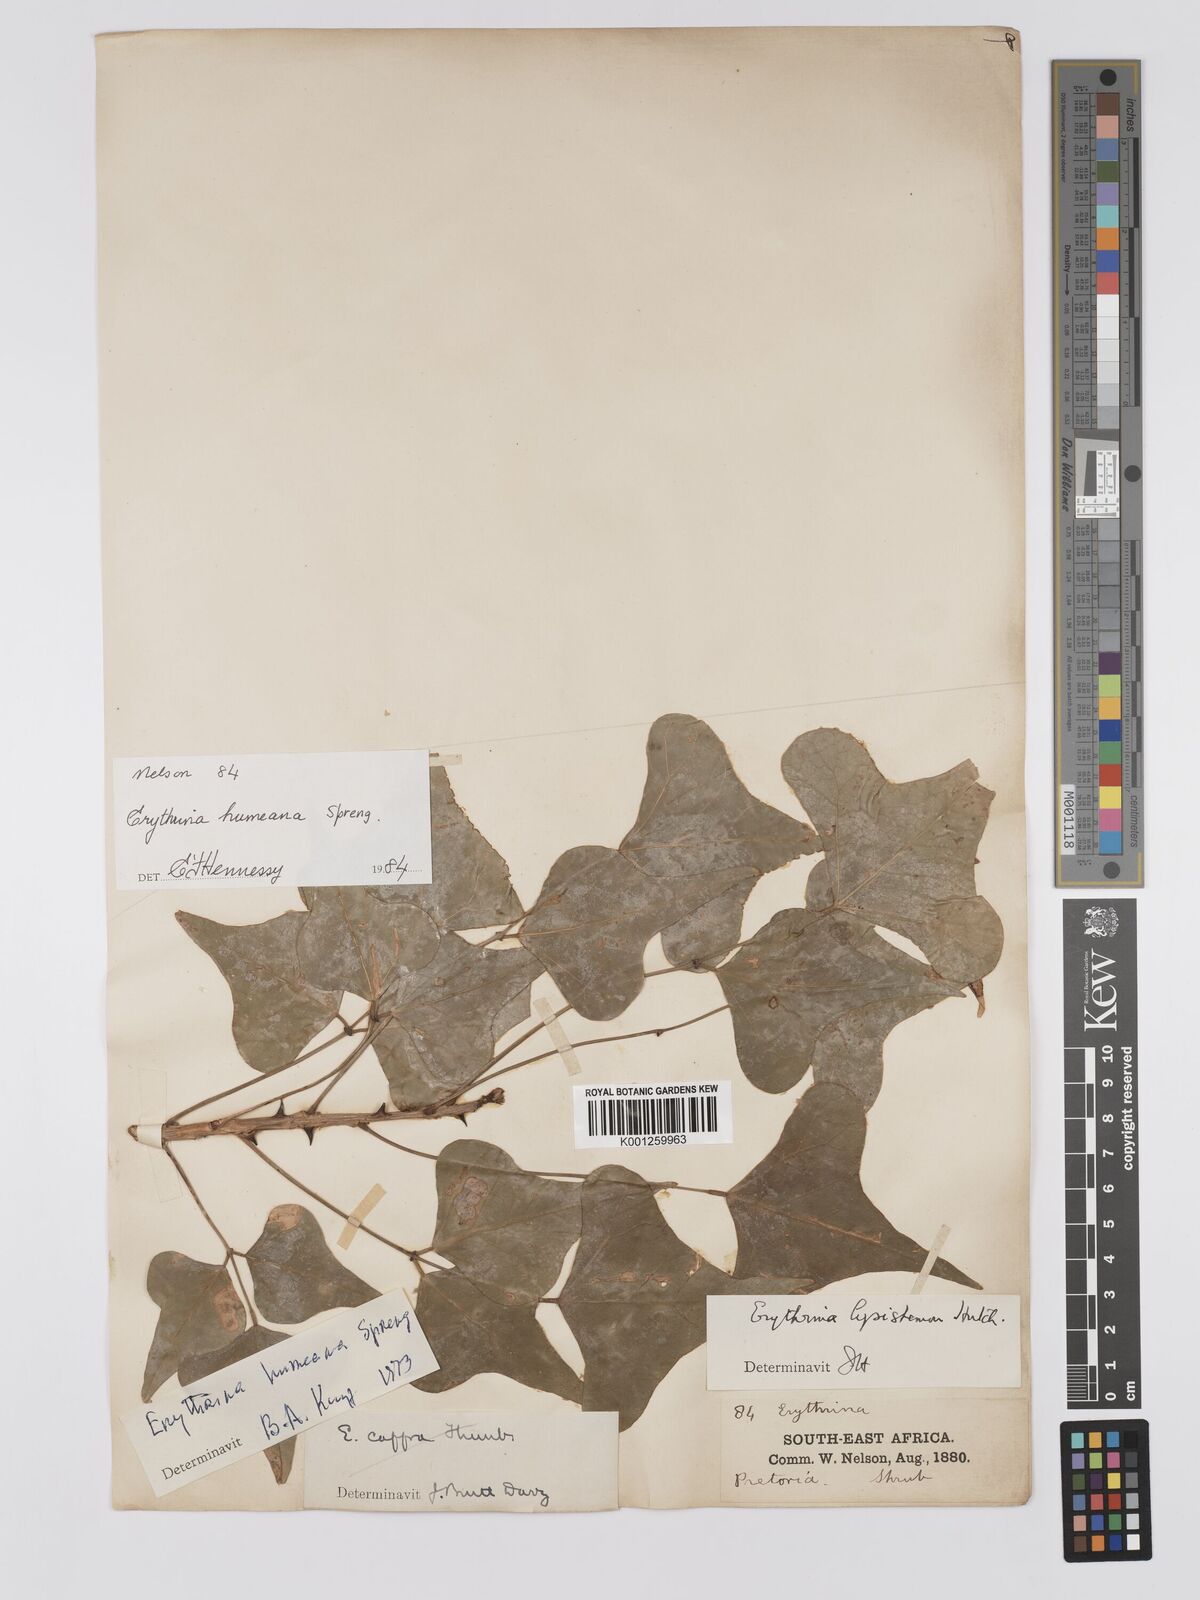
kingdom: Plantae
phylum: Tracheophyta
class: Magnoliopsida
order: Fabales
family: Fabaceae
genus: Erythrina
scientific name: Erythrina humeana
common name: Dwarf coral tree
